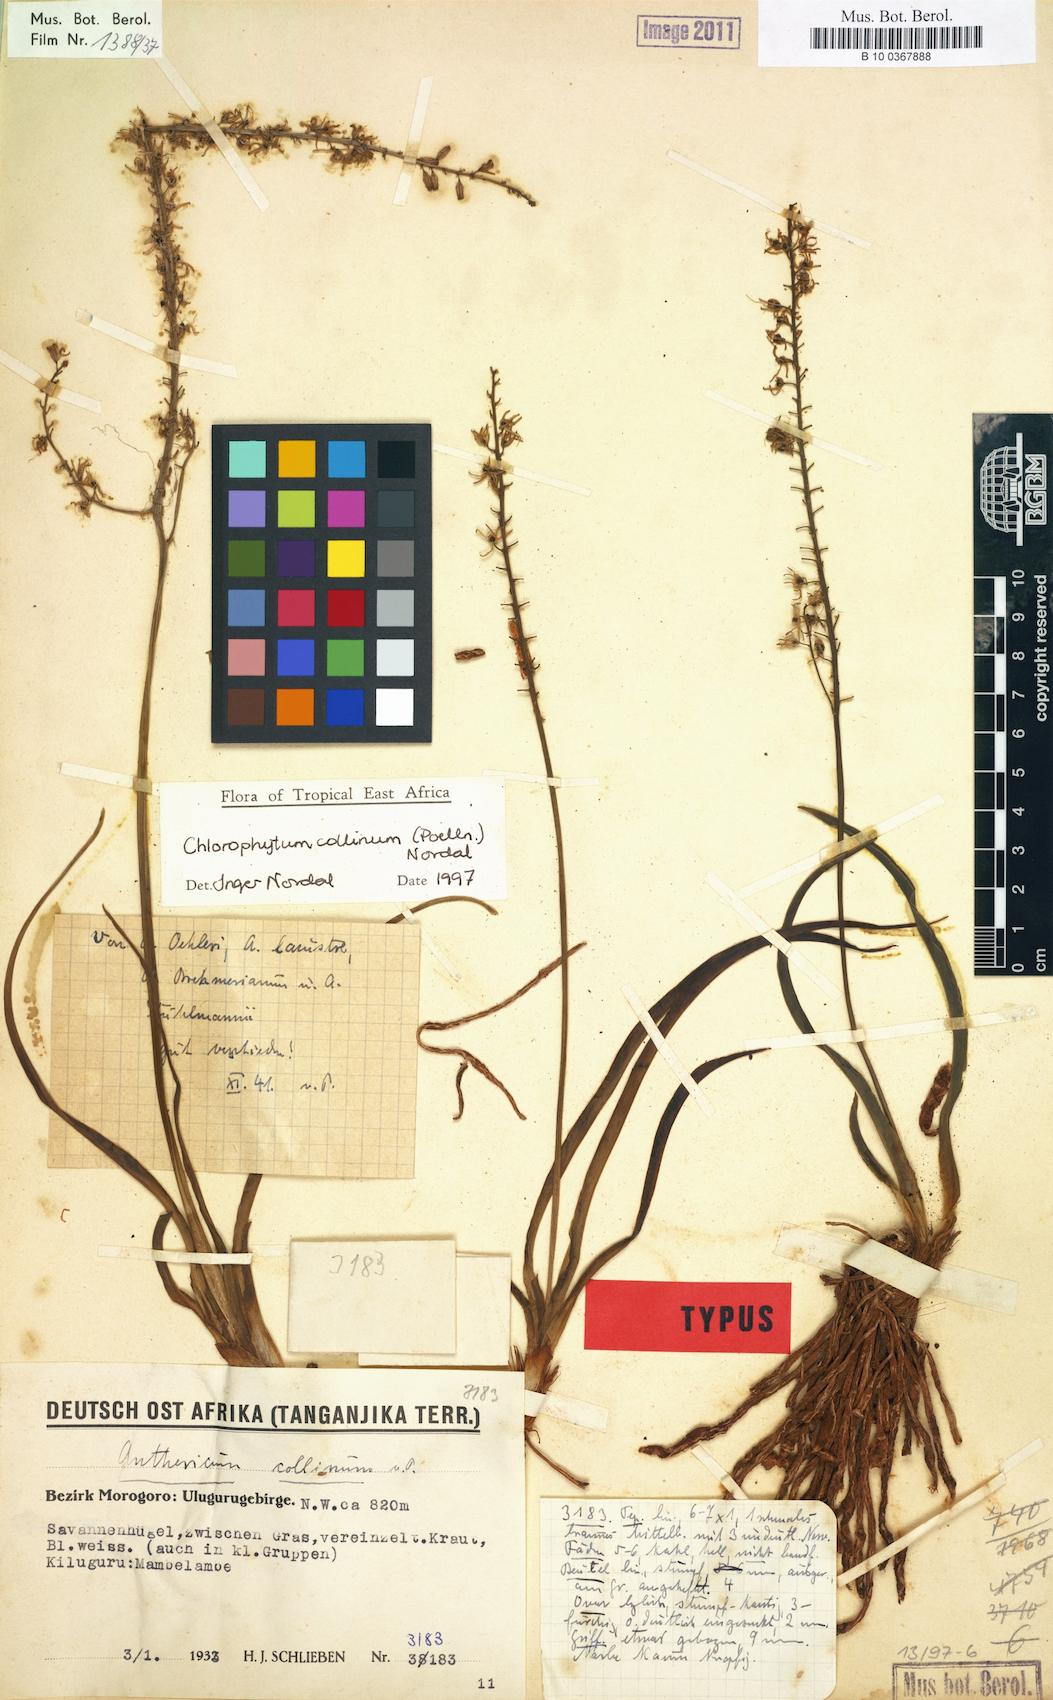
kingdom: Plantae
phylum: Tracheophyta
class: Liliopsida
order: Asparagales
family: Asparagaceae
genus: Chlorophytum
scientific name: Chlorophytum collinum
